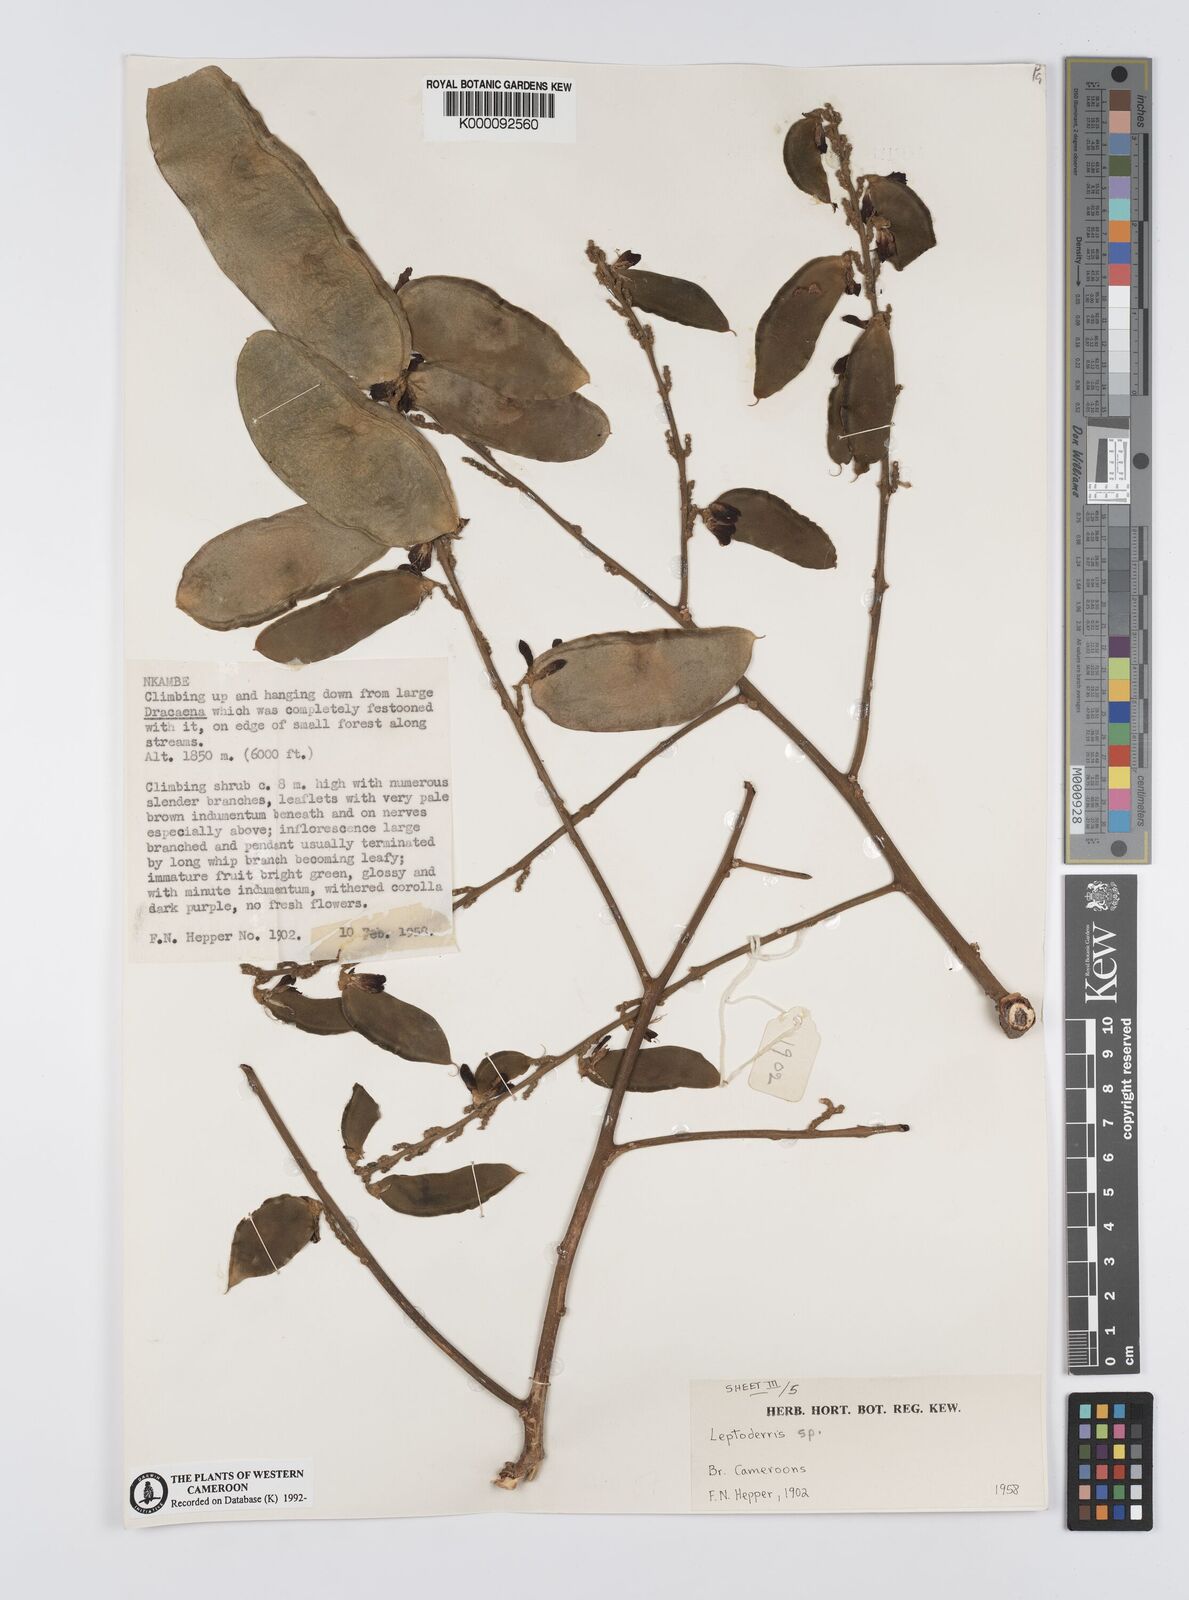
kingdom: Plantae
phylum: Tracheophyta
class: Magnoliopsida
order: Fabales
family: Fabaceae
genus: Leptoderris
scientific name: Leptoderris
